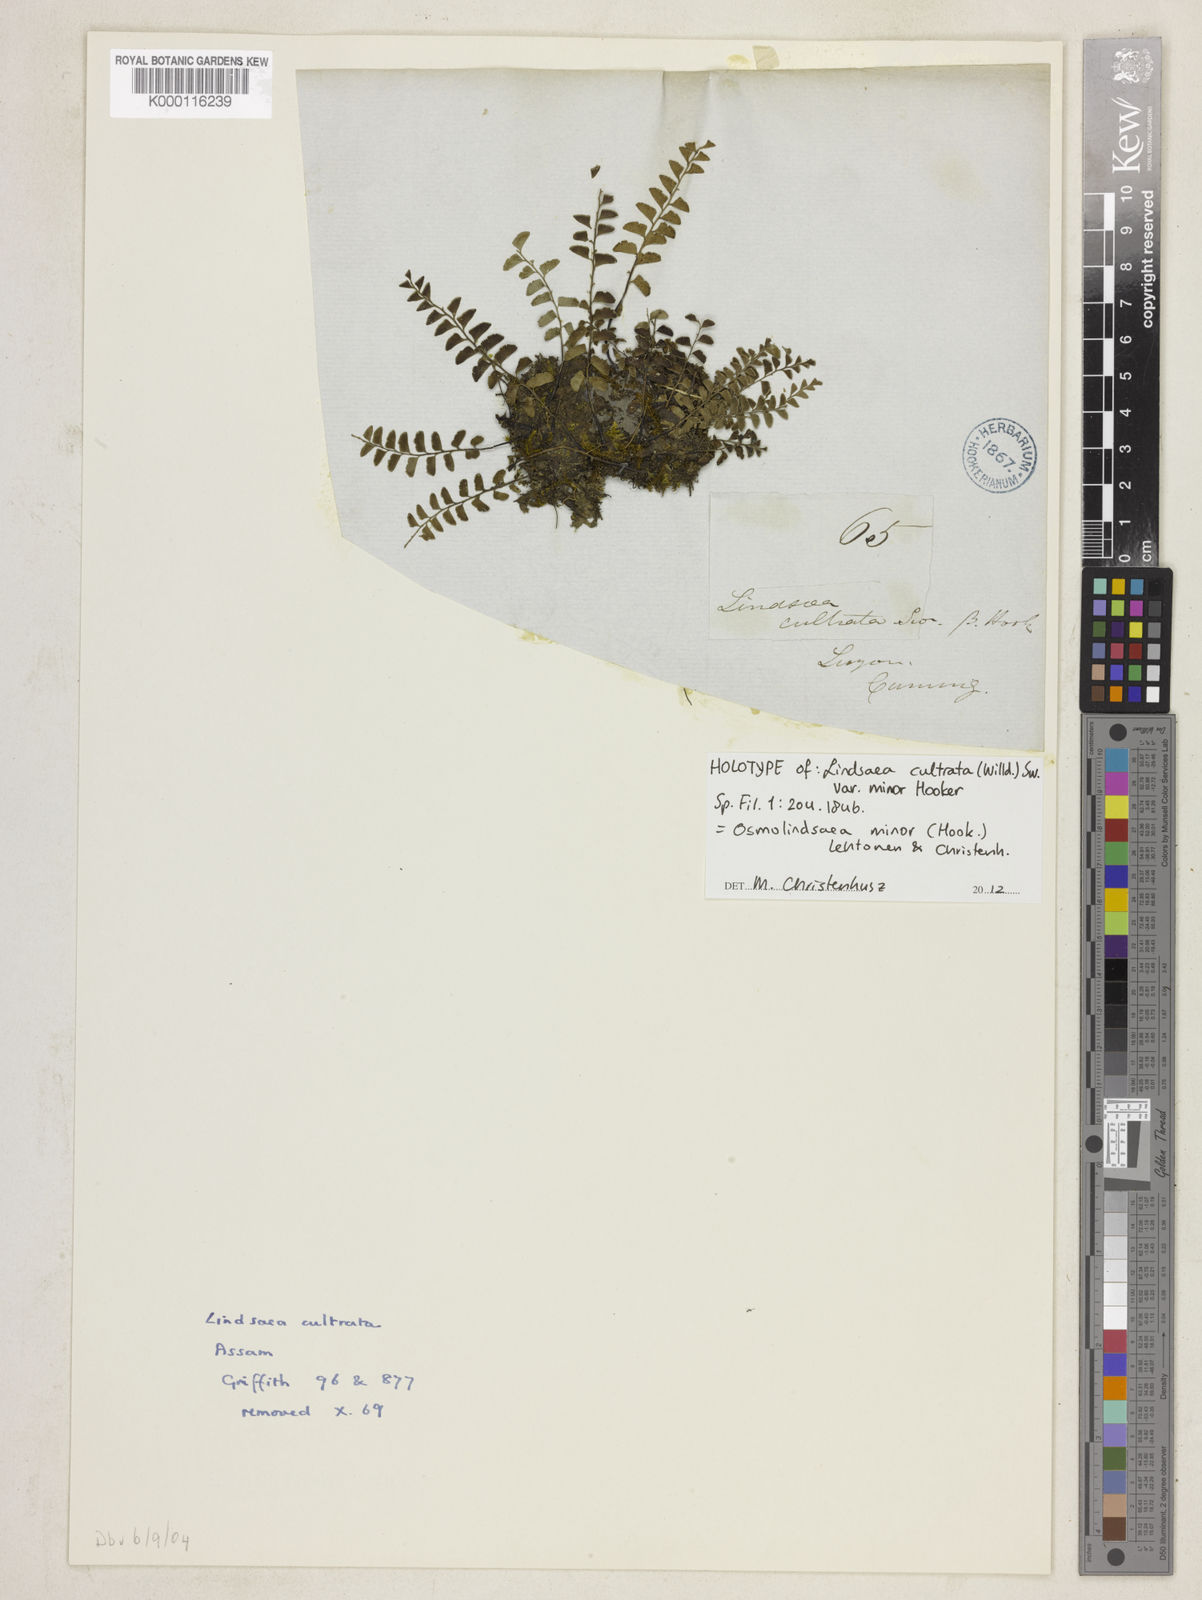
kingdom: Plantae
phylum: Tracheophyta
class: Polypodiopsida
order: Polypodiales
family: Lindsaeaceae
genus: Osmolindsaea
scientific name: Osmolindsaea minor
